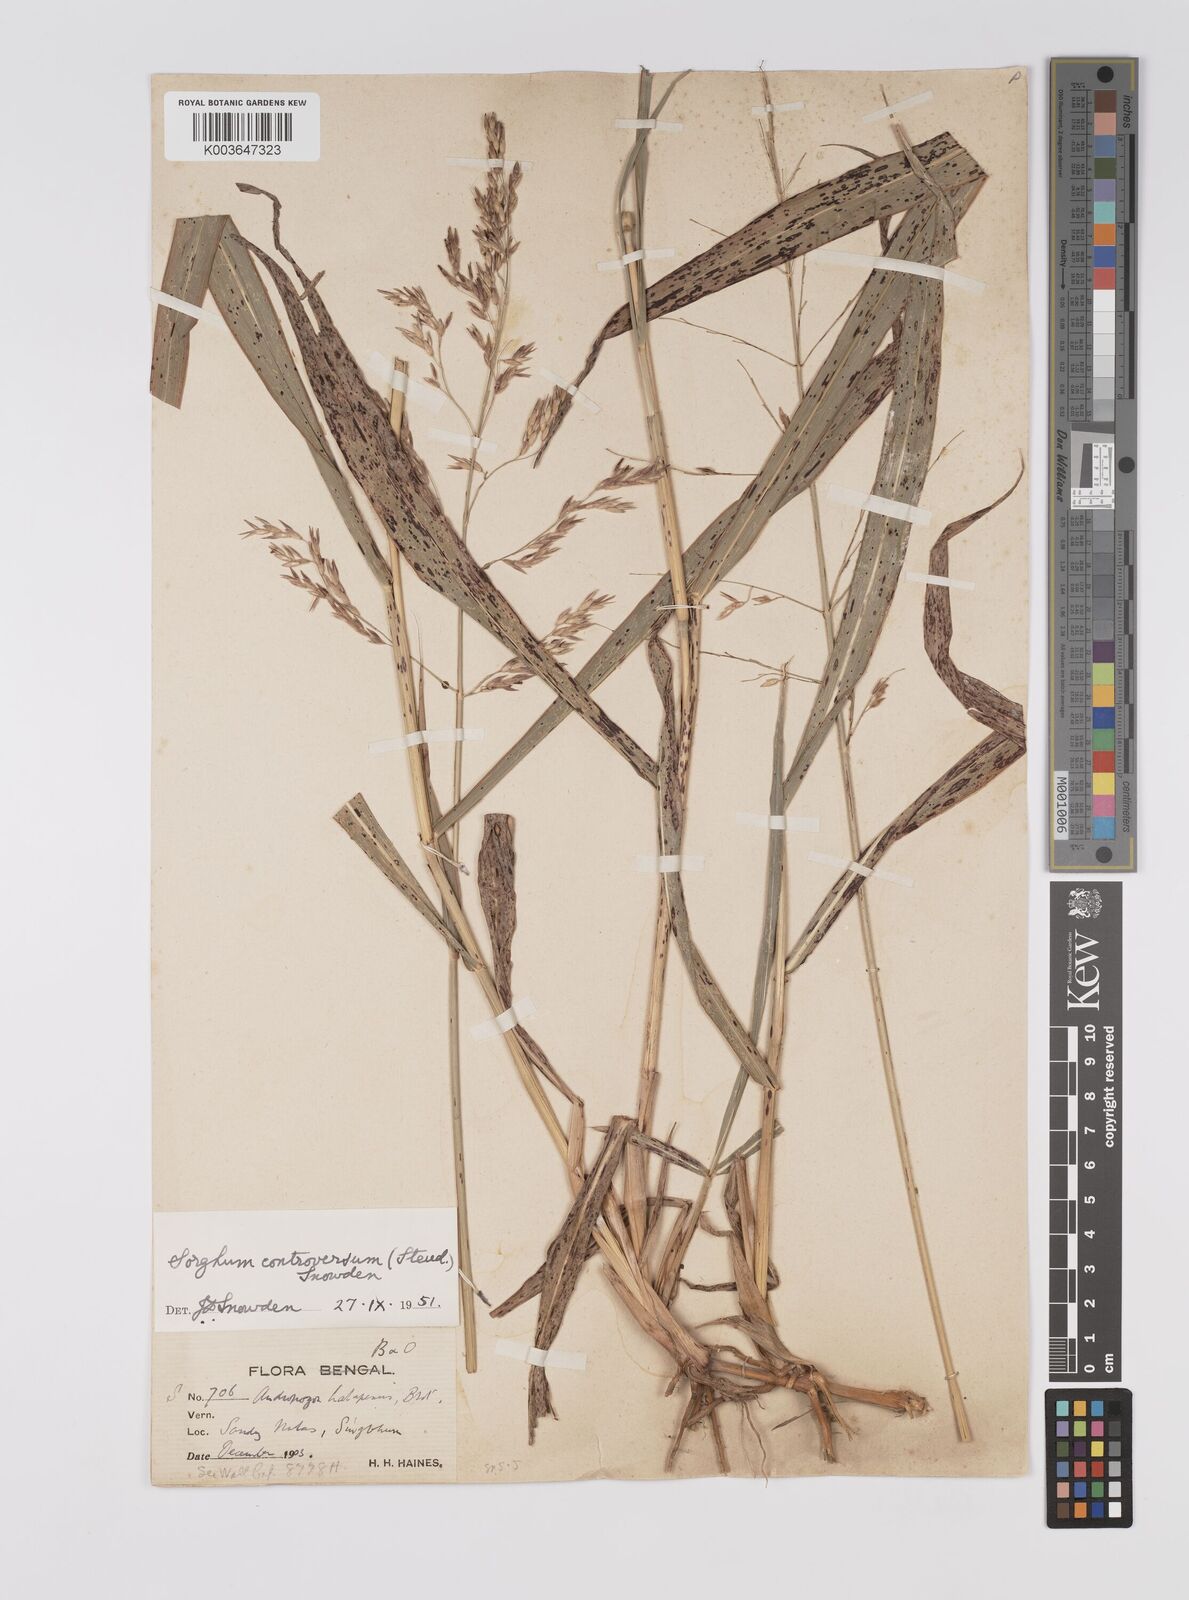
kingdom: Plantae
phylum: Tracheophyta
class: Liliopsida
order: Poales
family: Poaceae
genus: Sorghum
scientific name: Sorghum controversum
